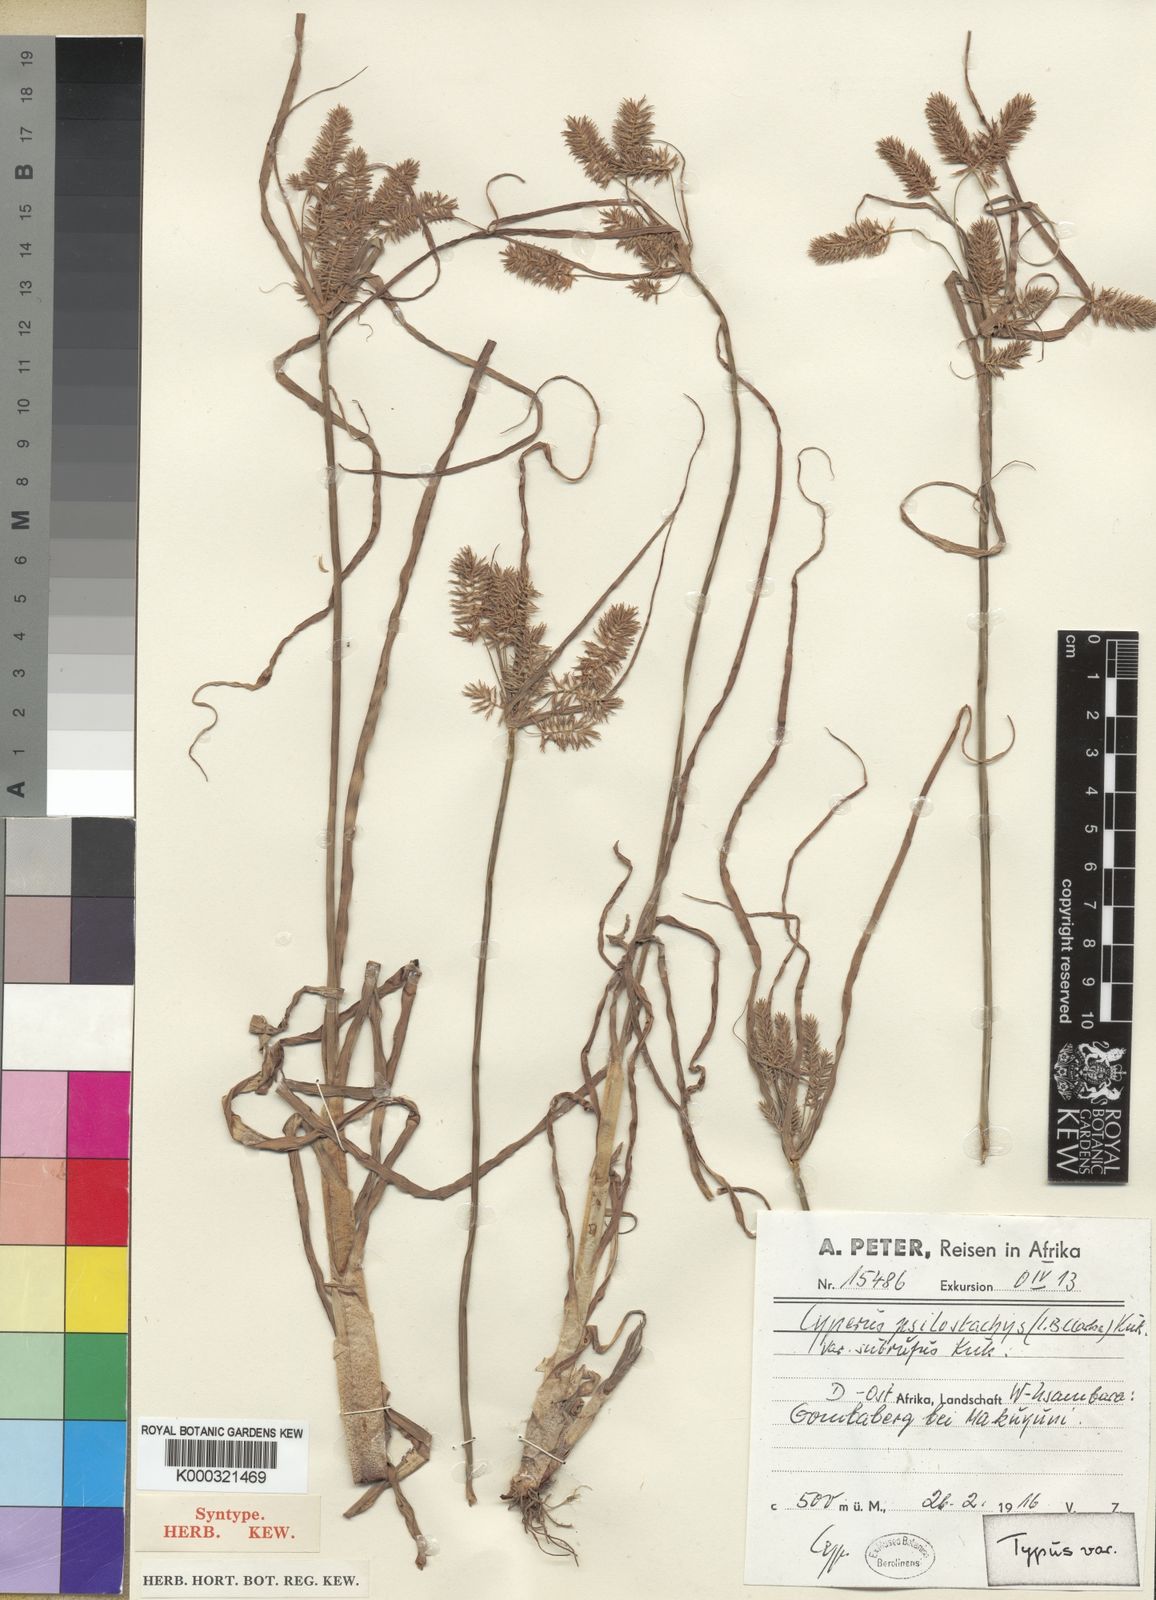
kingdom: Plantae
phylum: Tracheophyta
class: Liliopsida
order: Poales
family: Cyperaceae
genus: Cyperus
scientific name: Cyperus
